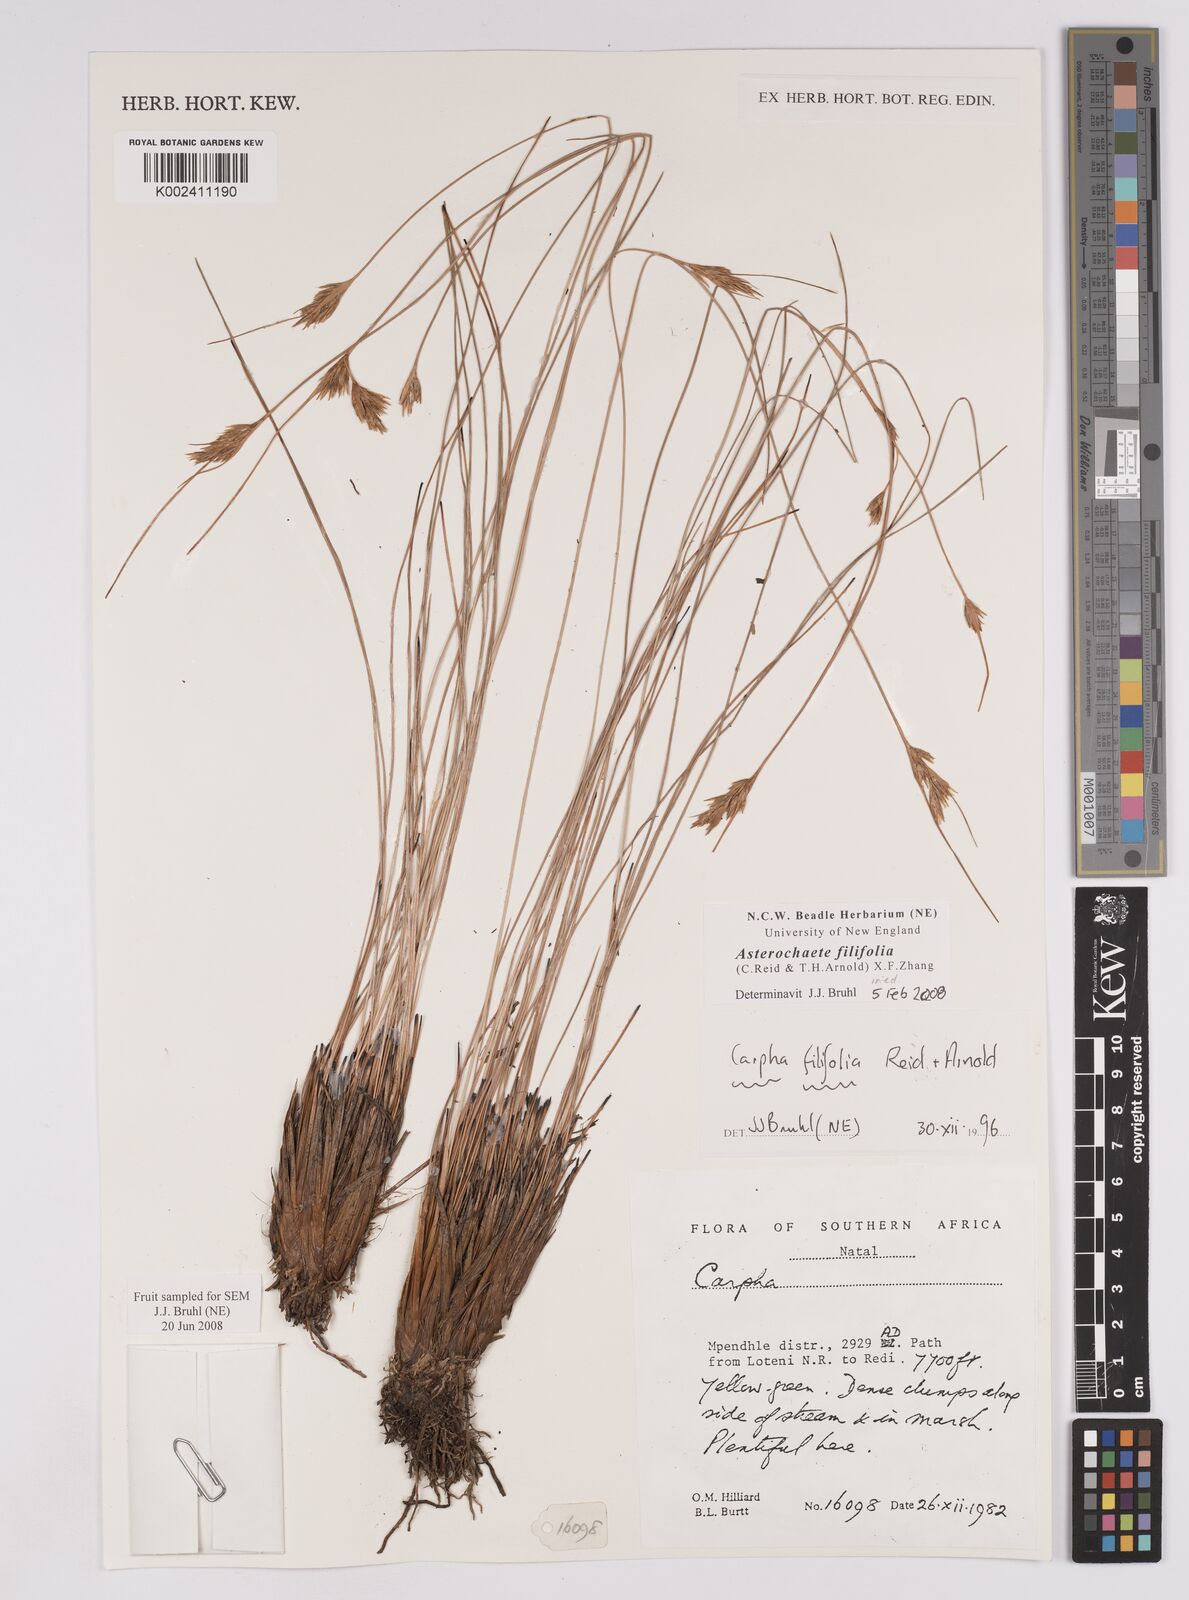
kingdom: Plantae
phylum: Tracheophyta
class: Liliopsida
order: Poales
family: Cyperaceae
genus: Carpha
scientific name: Carpha filifolia
